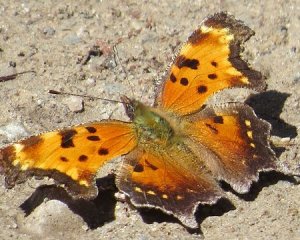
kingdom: Animalia
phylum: Arthropoda
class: Insecta
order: Lepidoptera
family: Nymphalidae
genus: Polygonia
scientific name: Polygonia progne
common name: Gray Comma
